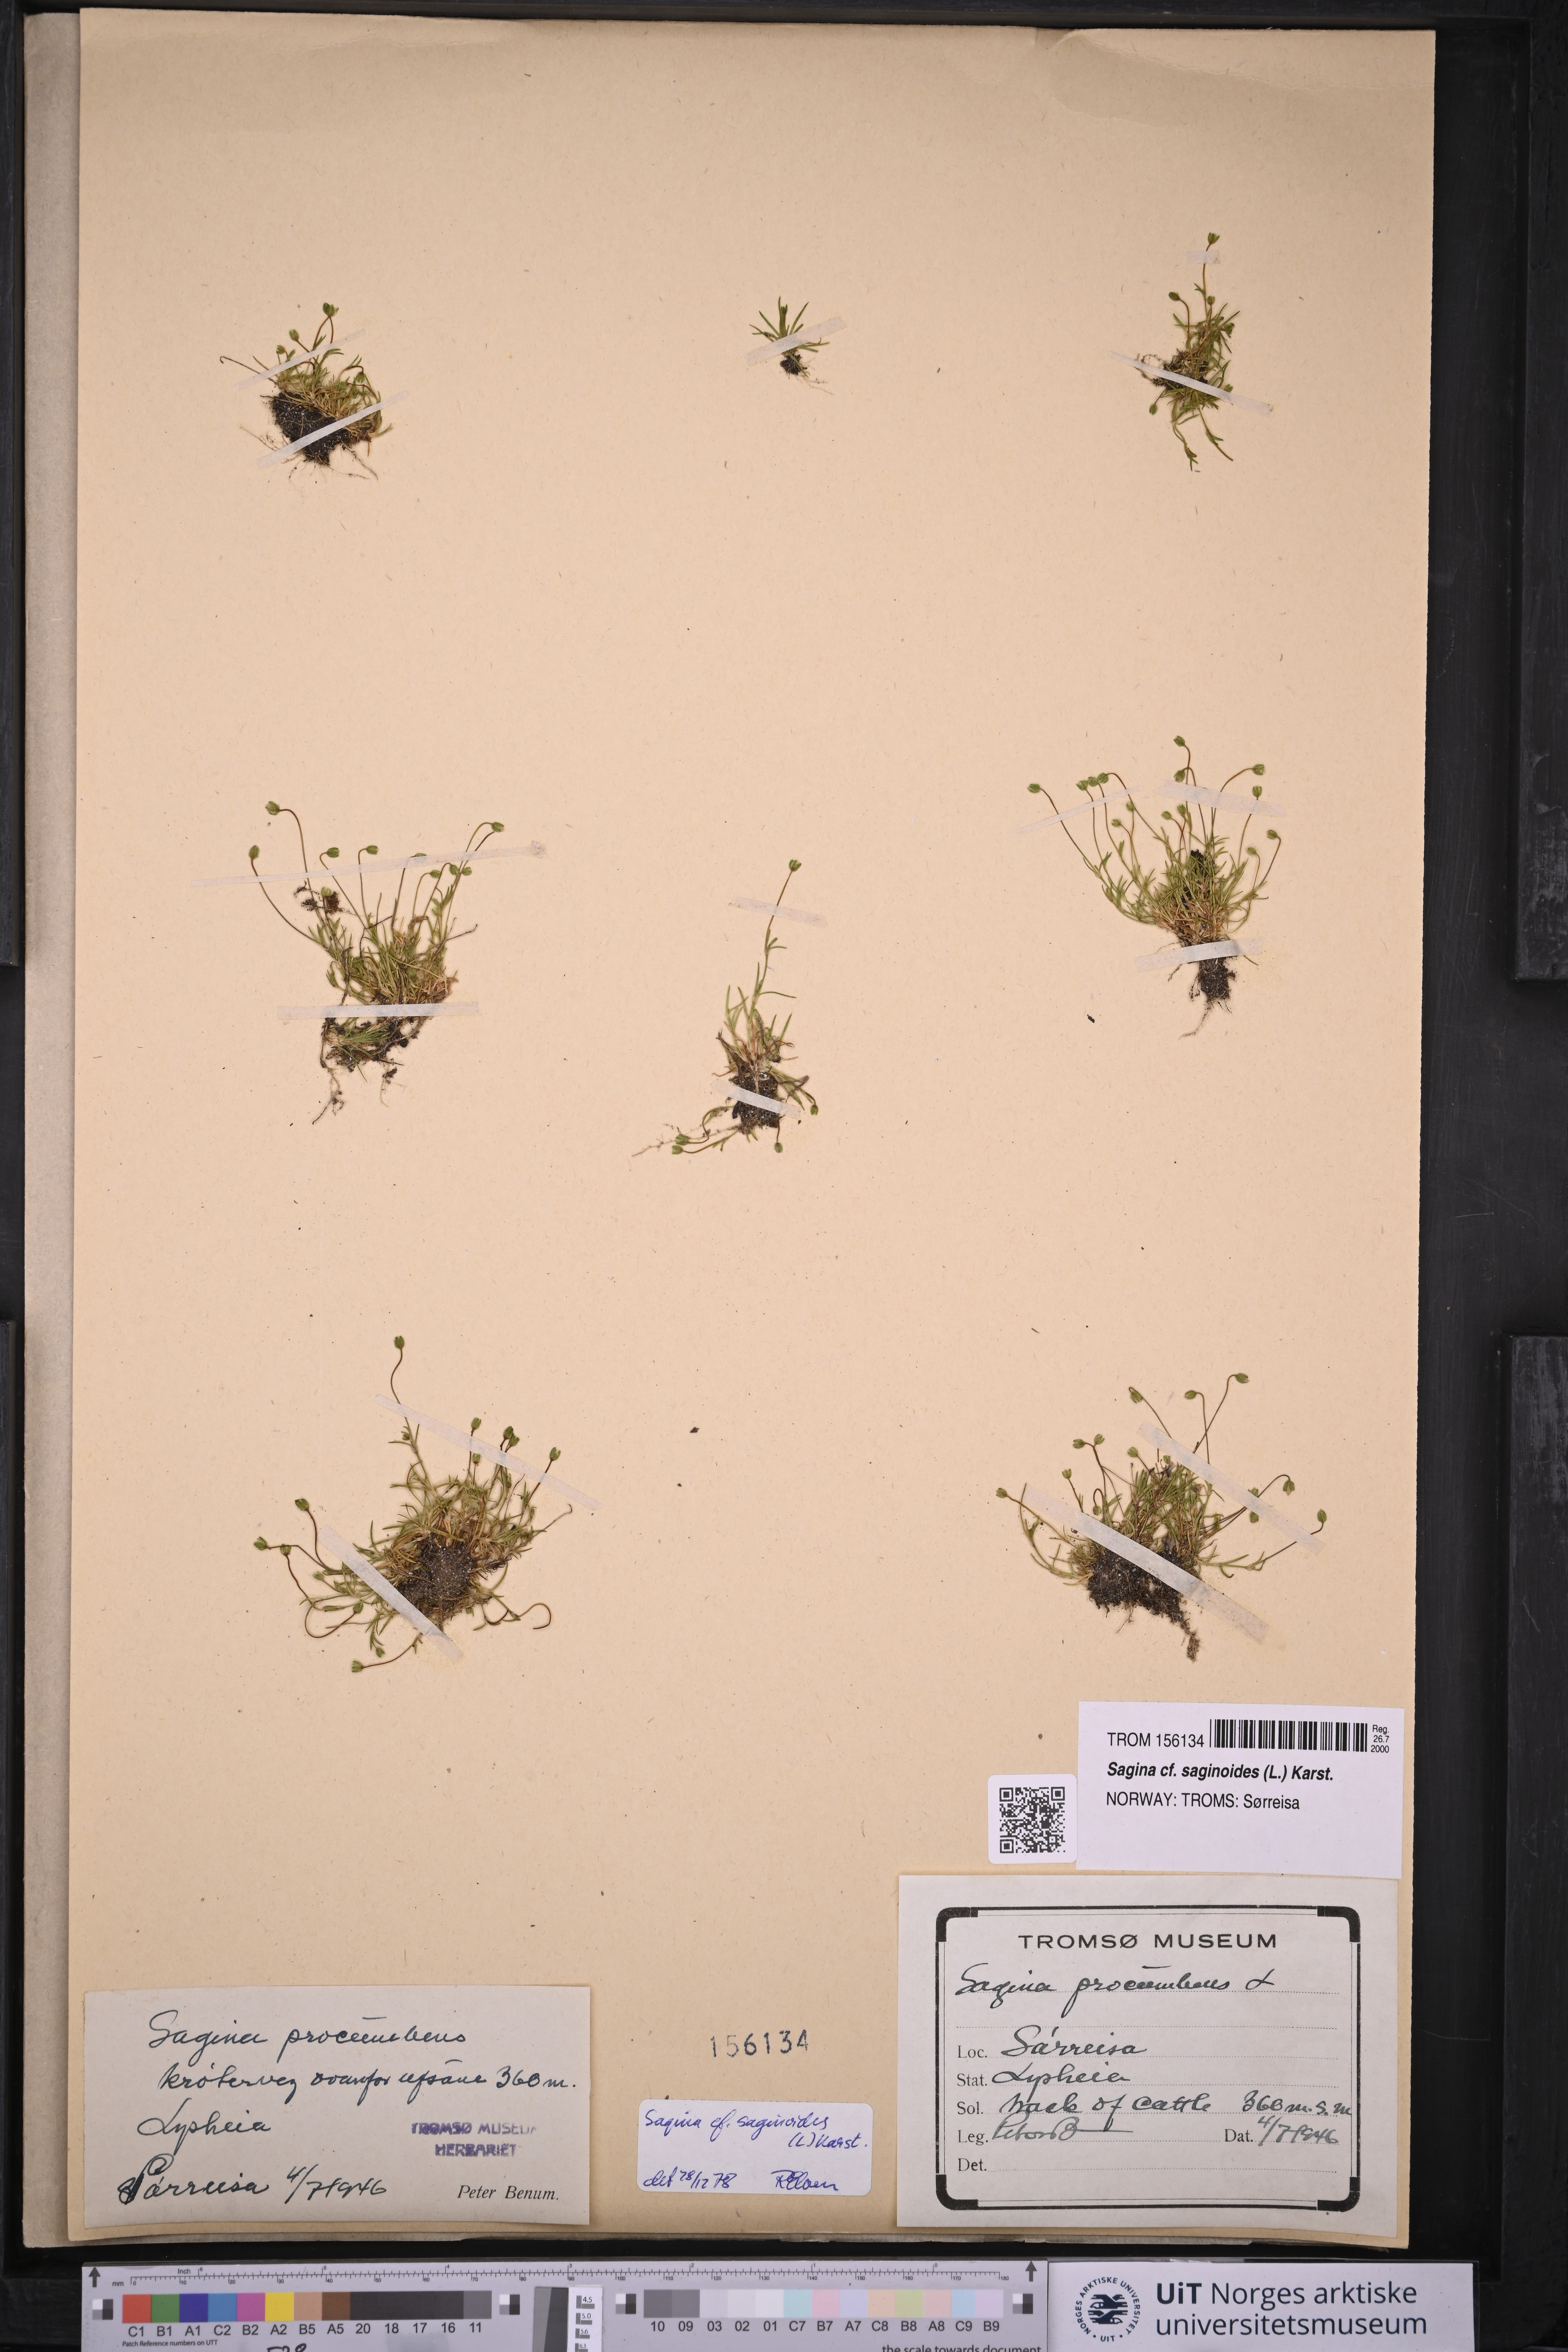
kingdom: Plantae
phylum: Tracheophyta
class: Magnoliopsida
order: Caryophyllales
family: Caryophyllaceae
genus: Sagina
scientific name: Sagina saginoides
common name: Alpine pearlwort
